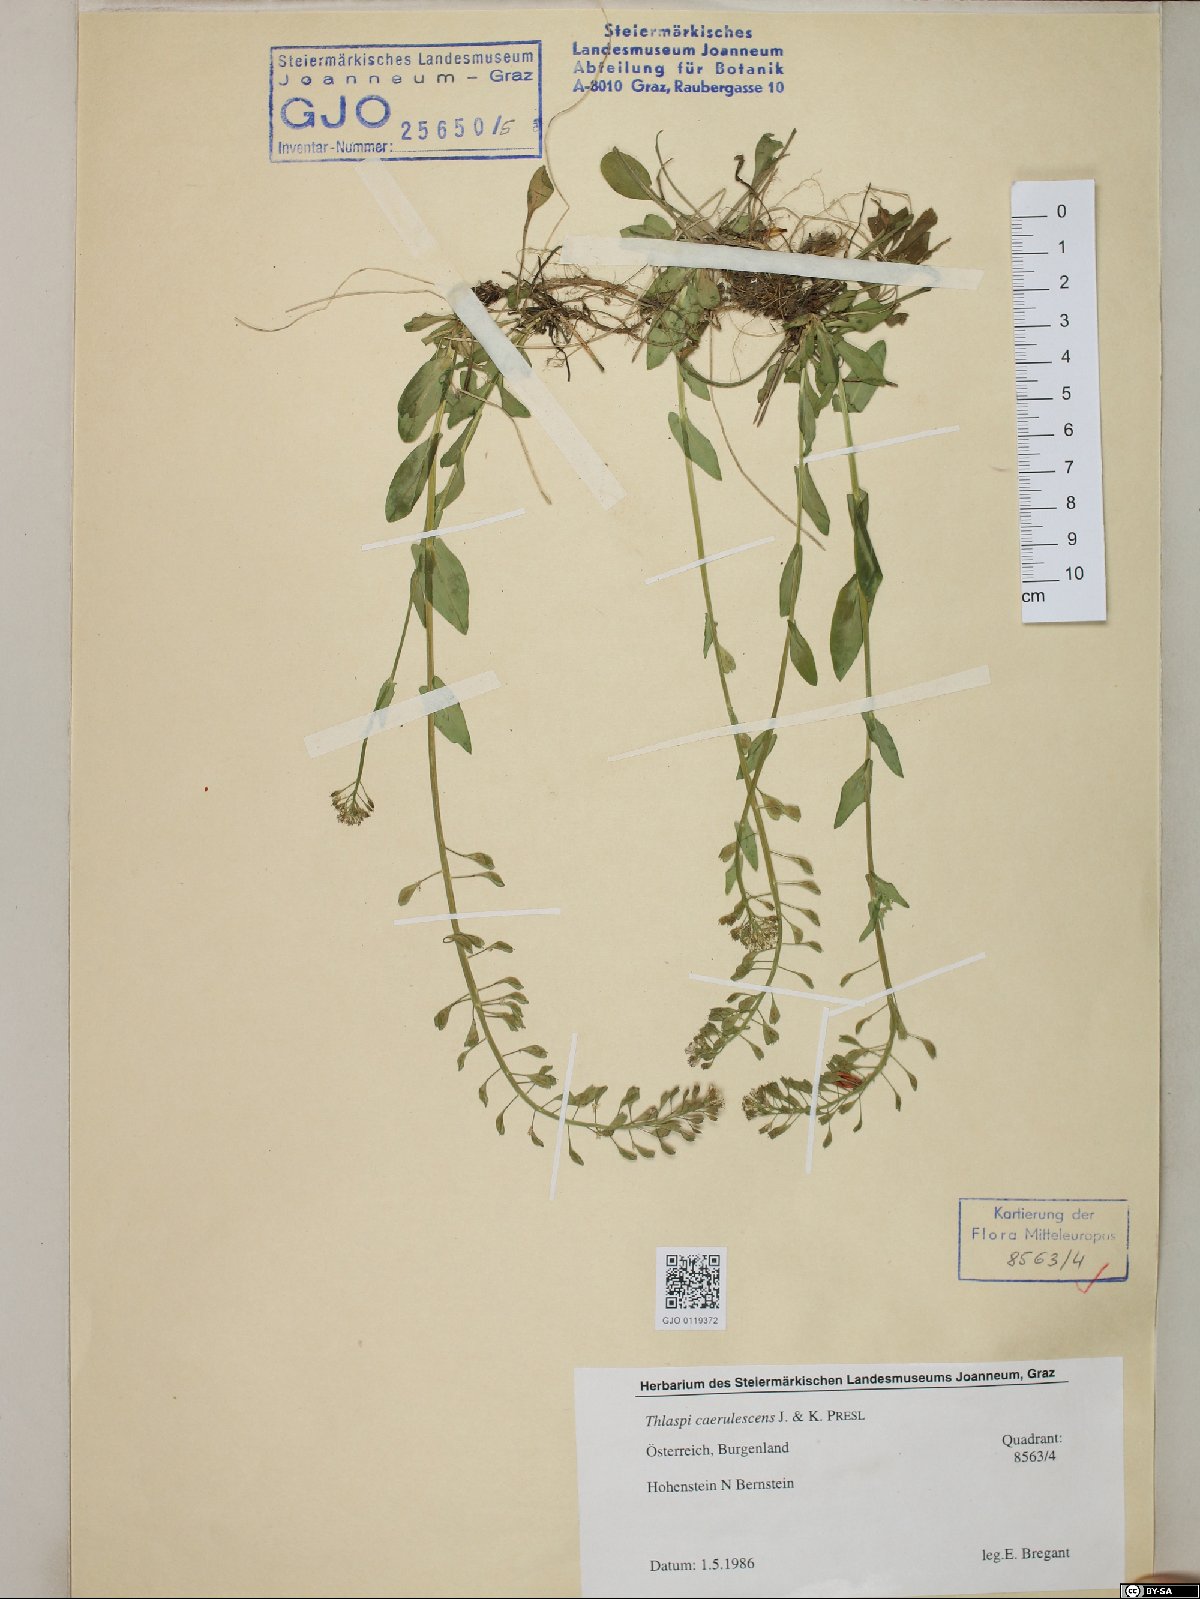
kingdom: Plantae
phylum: Tracheophyta
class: Magnoliopsida
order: Brassicales
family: Brassicaceae
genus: Noccaea
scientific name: Noccaea caerulescens
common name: Alpine pennycress
